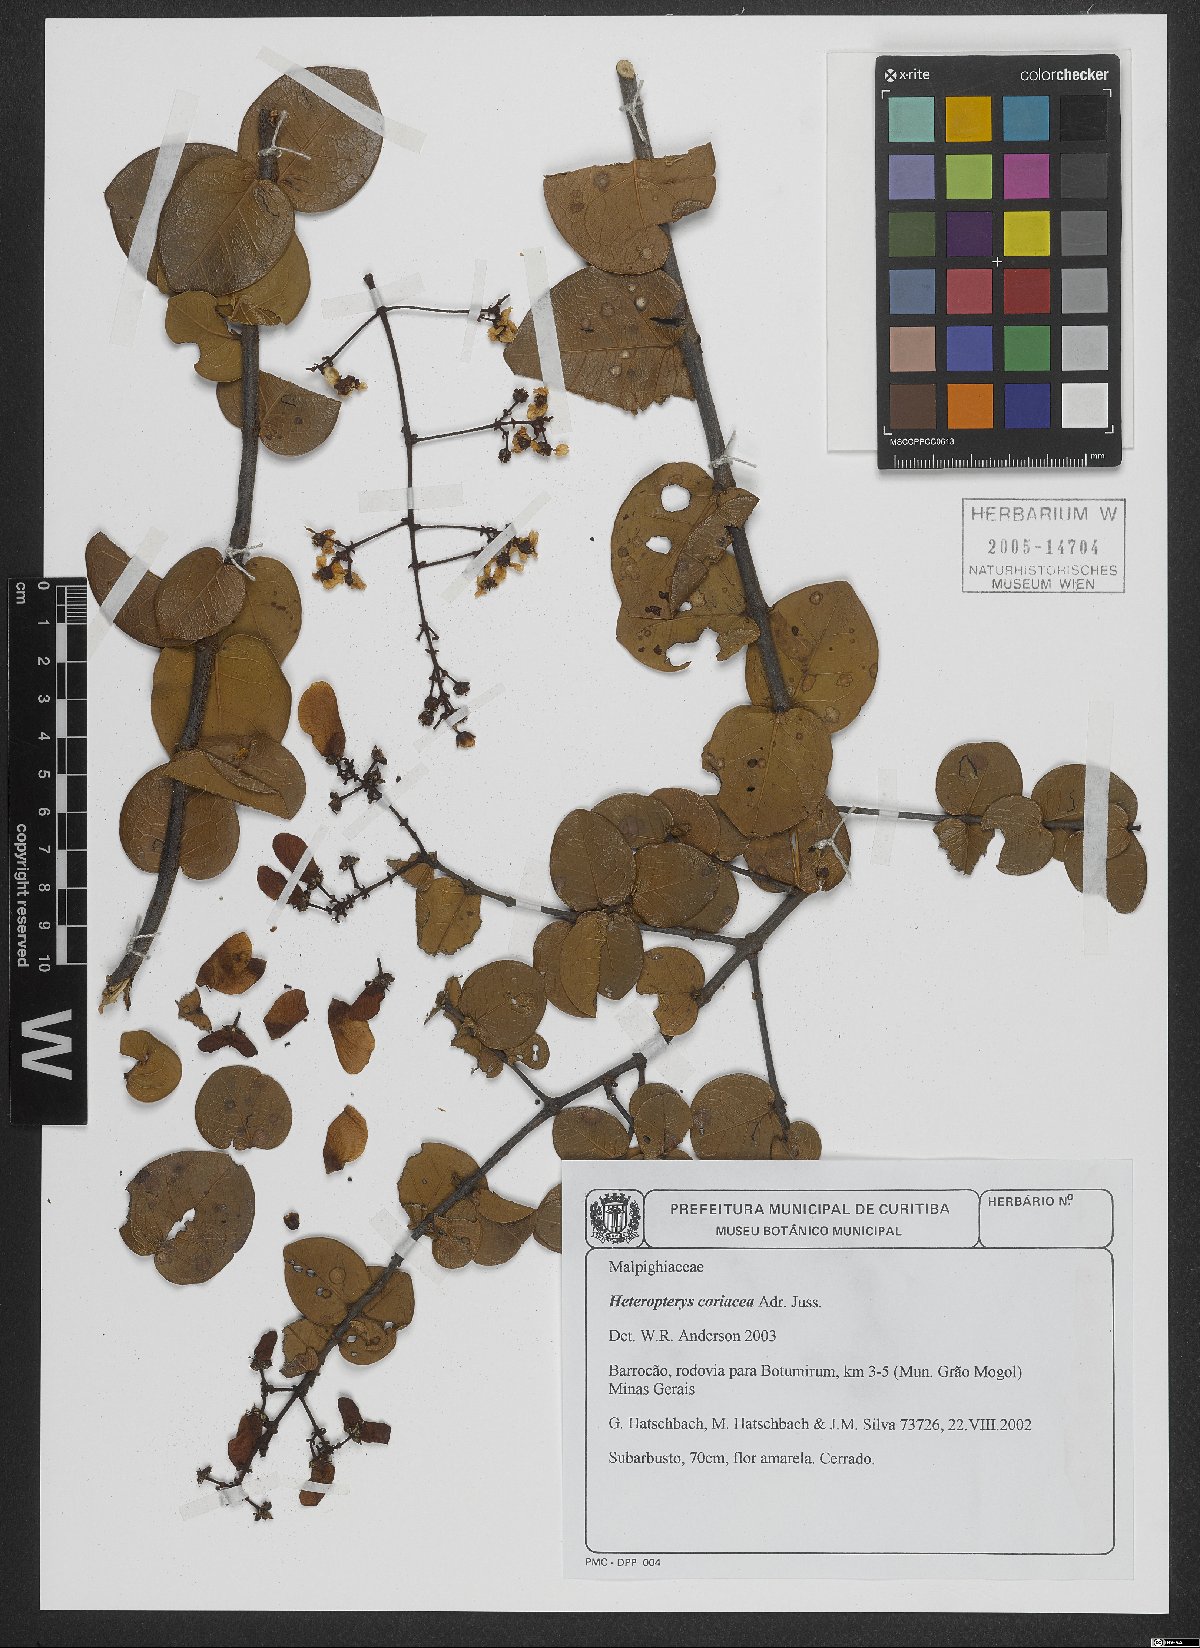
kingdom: Plantae
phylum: Tracheophyta
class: Magnoliopsida
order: Malpighiales
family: Malpighiaceae
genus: Heteropterys
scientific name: Heteropterys coriacea
